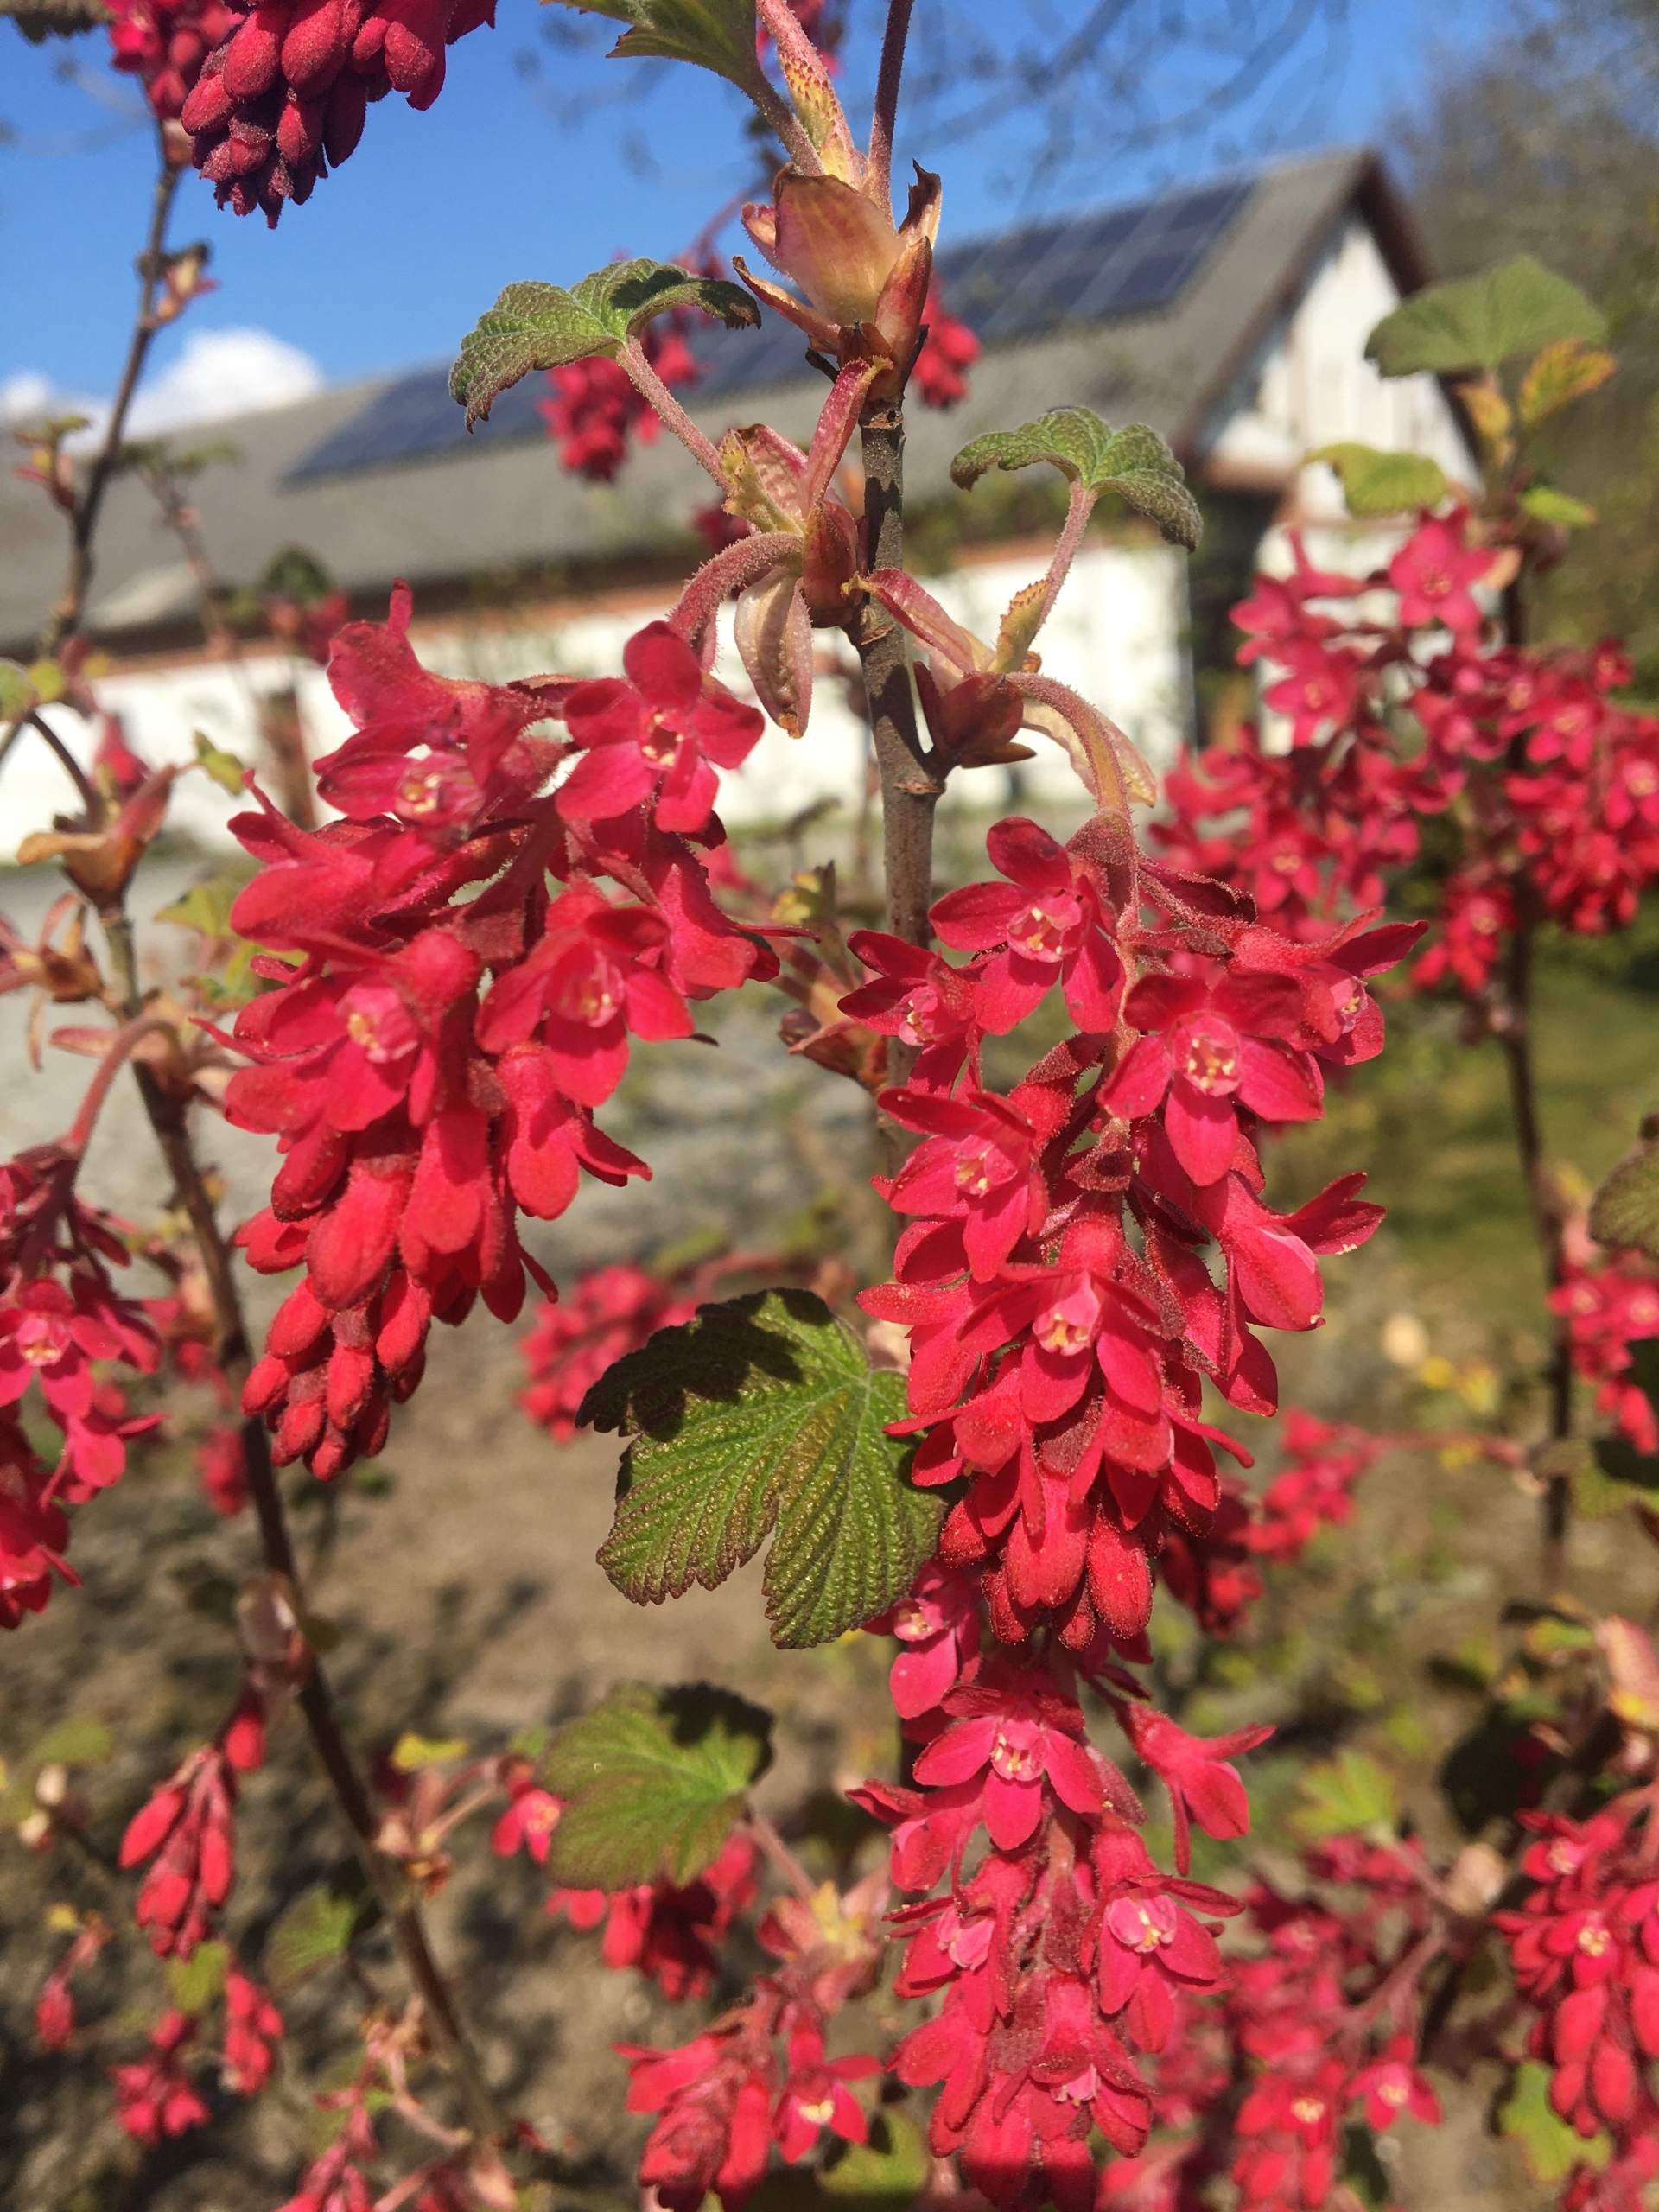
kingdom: Plantae
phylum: Tracheophyta
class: Magnoliopsida
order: Saxifragales
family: Grossulariaceae
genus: Ribes
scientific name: Ribes sanguineum
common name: Blod-ribs
